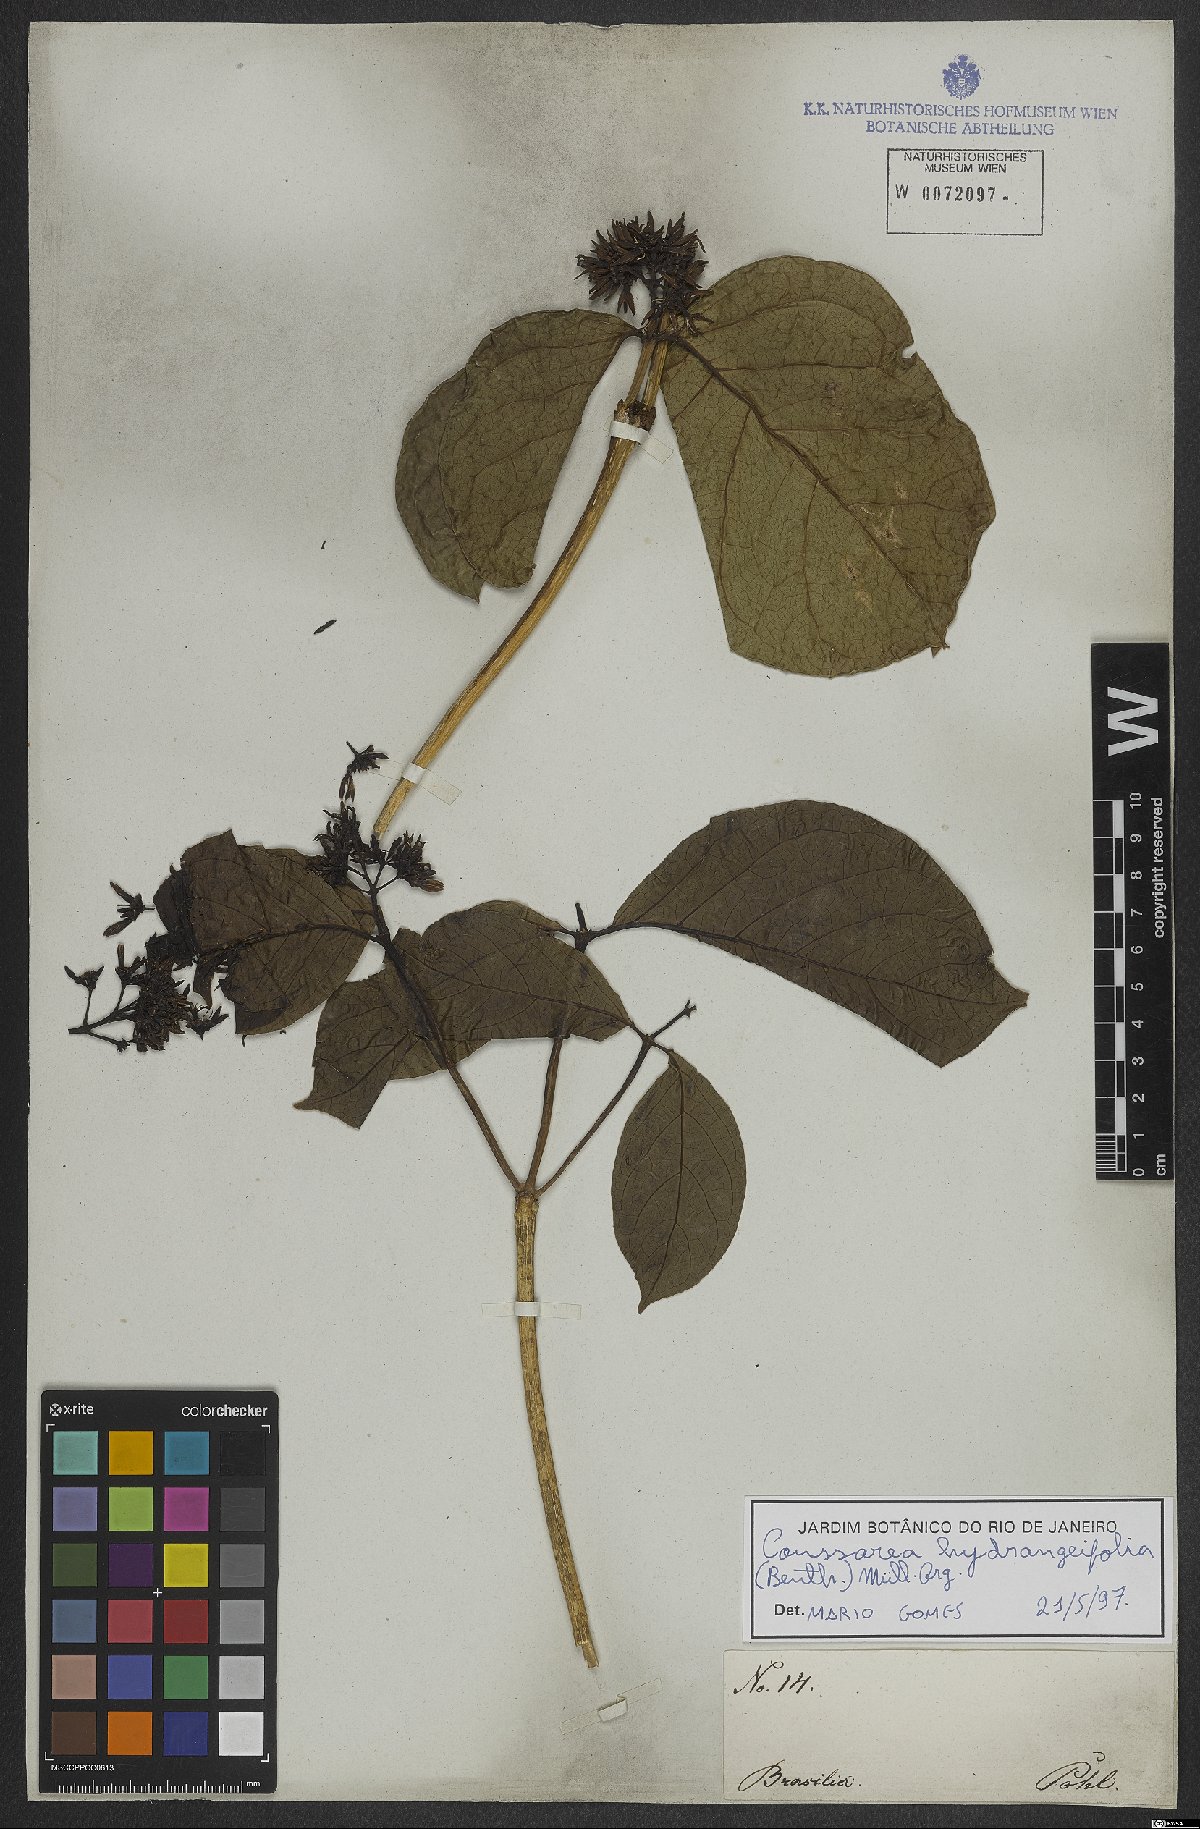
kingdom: Plantae
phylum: Tracheophyta
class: Magnoliopsida
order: Gentianales
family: Rubiaceae
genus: Coussarea
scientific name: Coussarea hydrangeifolia
